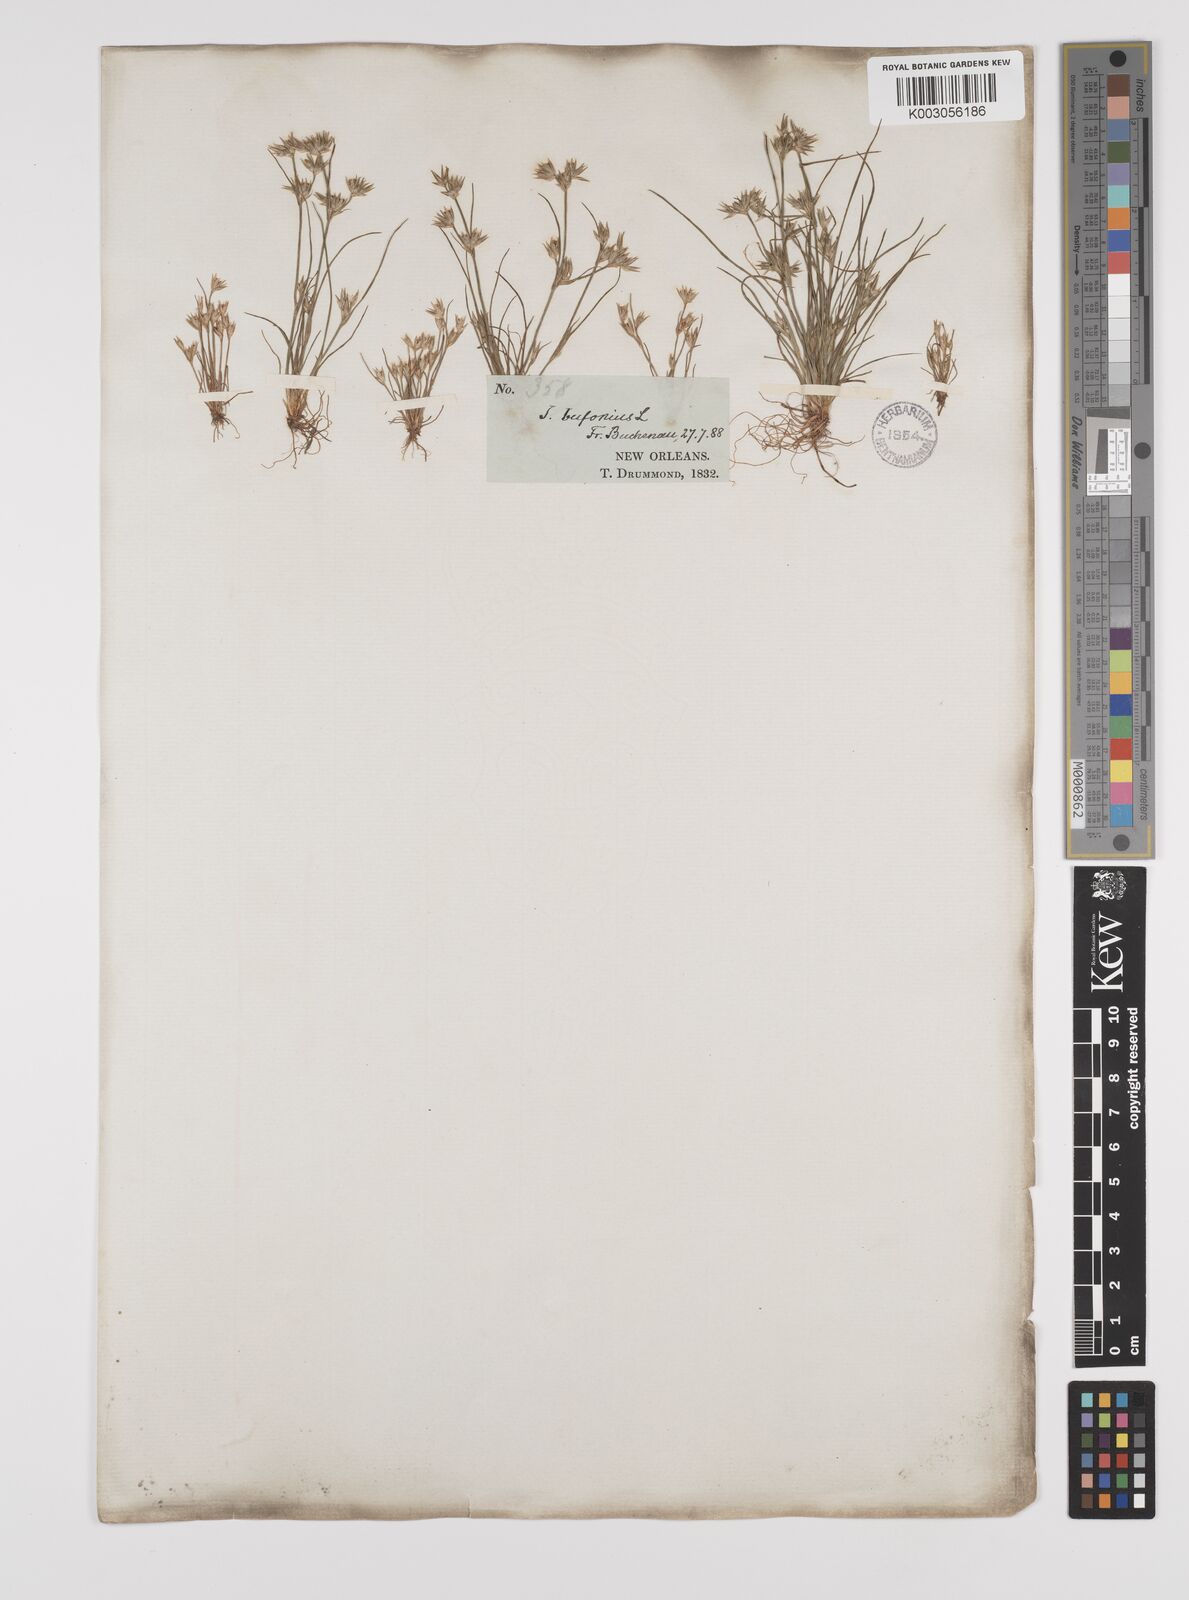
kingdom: Plantae
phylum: Tracheophyta
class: Liliopsida
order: Poales
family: Juncaceae
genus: Juncus
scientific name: Juncus bufonius
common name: Toad rush
